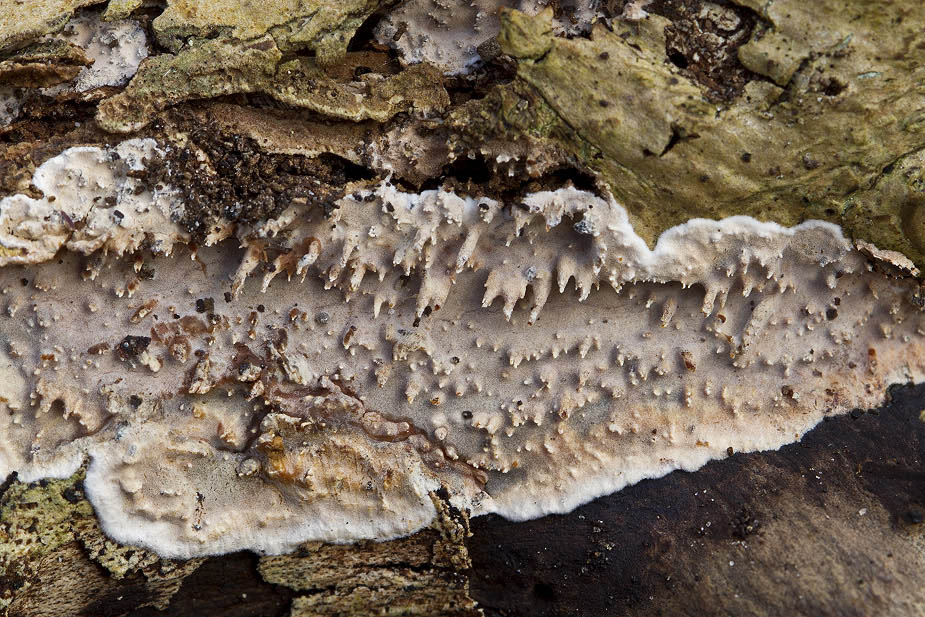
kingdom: Fungi
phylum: Basidiomycota
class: Agaricomycetes
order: Auriculariales
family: Auriculariaceae
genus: Heteroradulum
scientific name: Heteroradulum deglubens
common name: bævreskorpe
